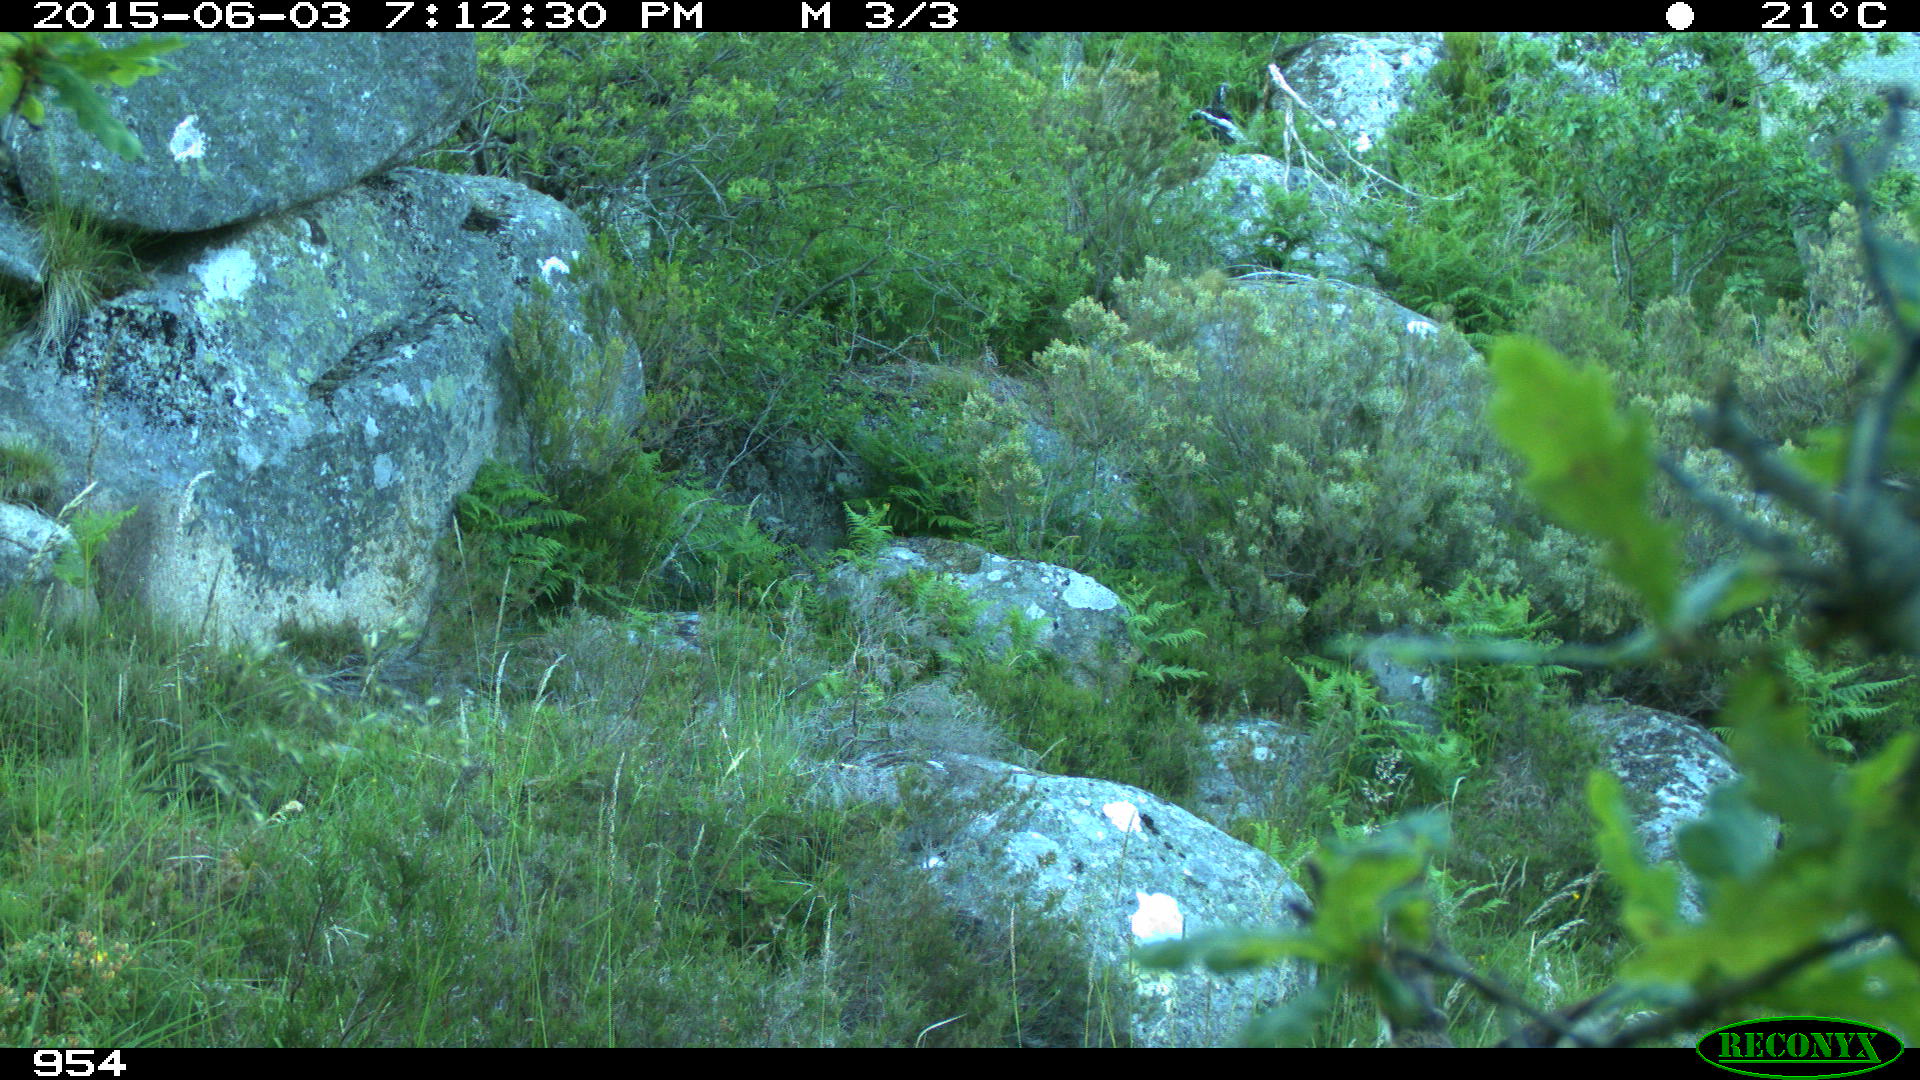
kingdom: Animalia
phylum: Chordata
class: Mammalia
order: Artiodactyla
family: Cervidae
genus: Capreolus
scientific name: Capreolus capreolus
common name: Western roe deer
